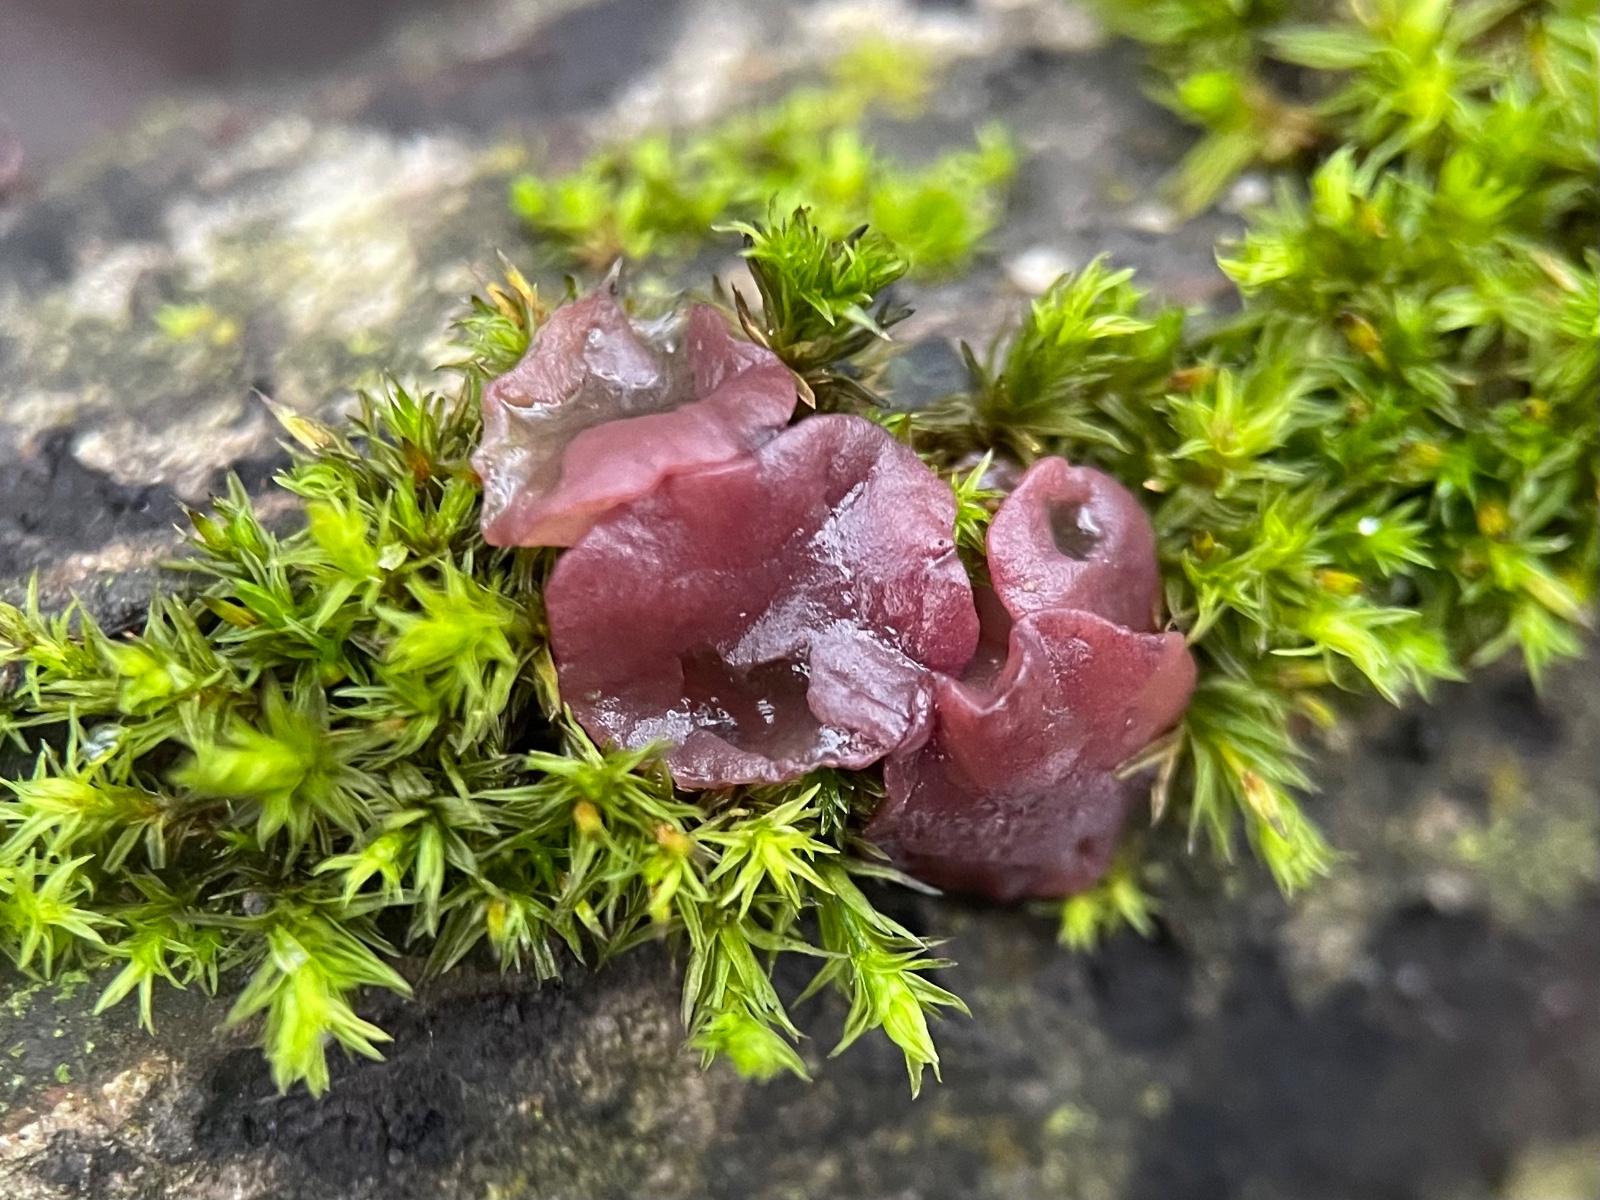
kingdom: Fungi
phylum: Ascomycota
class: Leotiomycetes
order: Helotiales
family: Gelatinodiscaceae
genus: Ascocoryne
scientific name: Ascocoryne cylichnium
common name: stor sejskive
